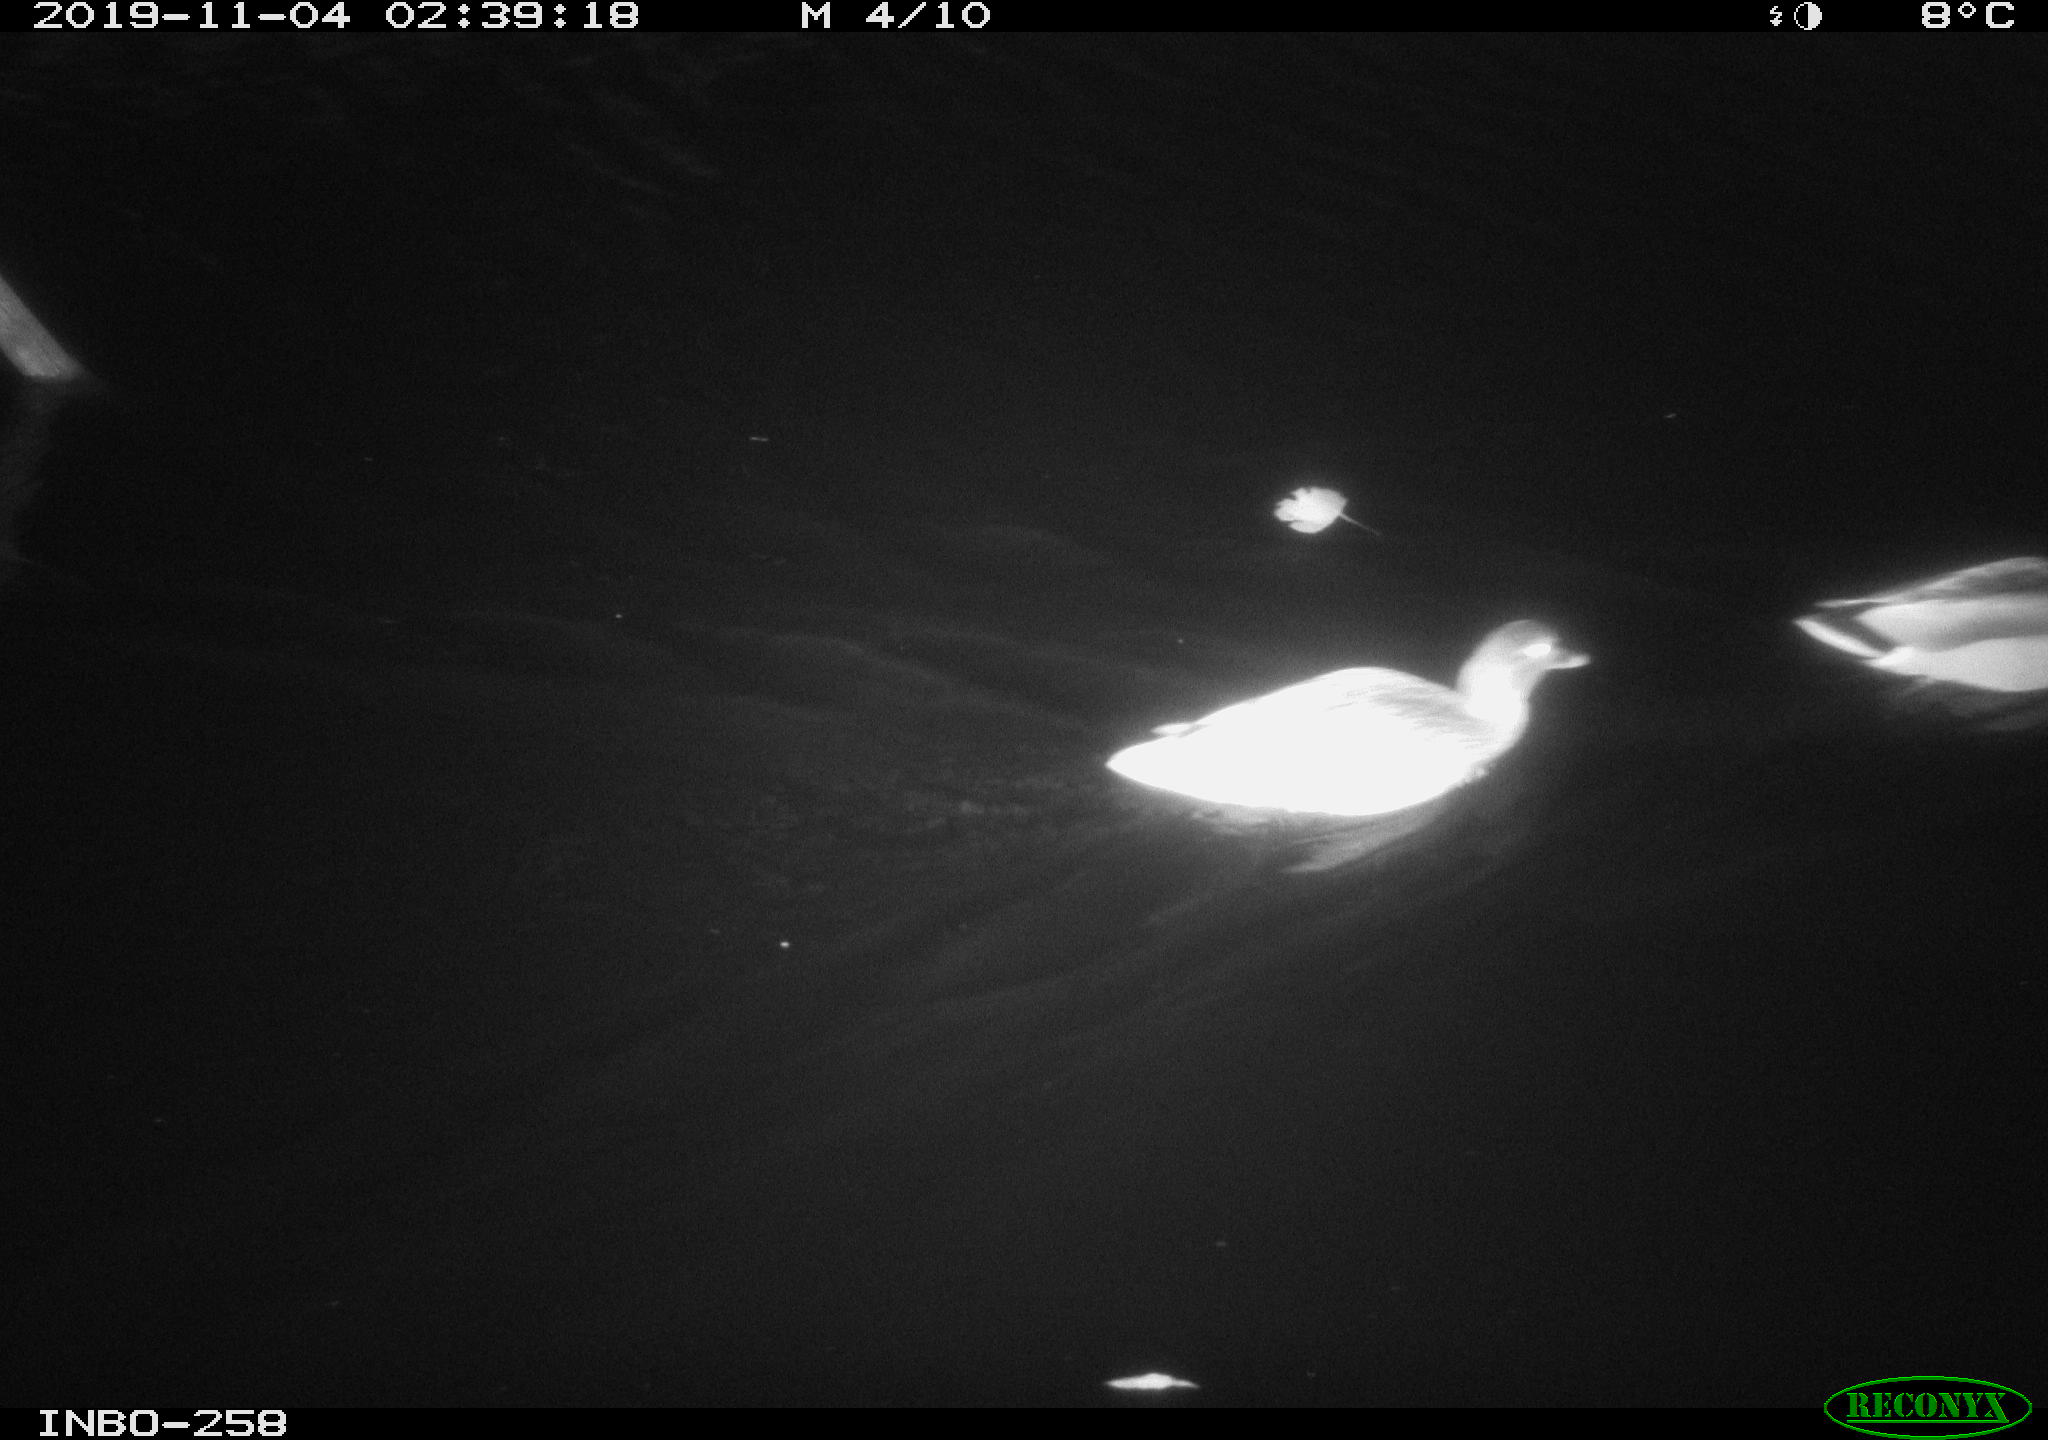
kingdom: Animalia
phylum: Chordata
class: Aves
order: Anseriformes
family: Anatidae
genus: Anas
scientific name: Anas platyrhynchos
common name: Mallard
